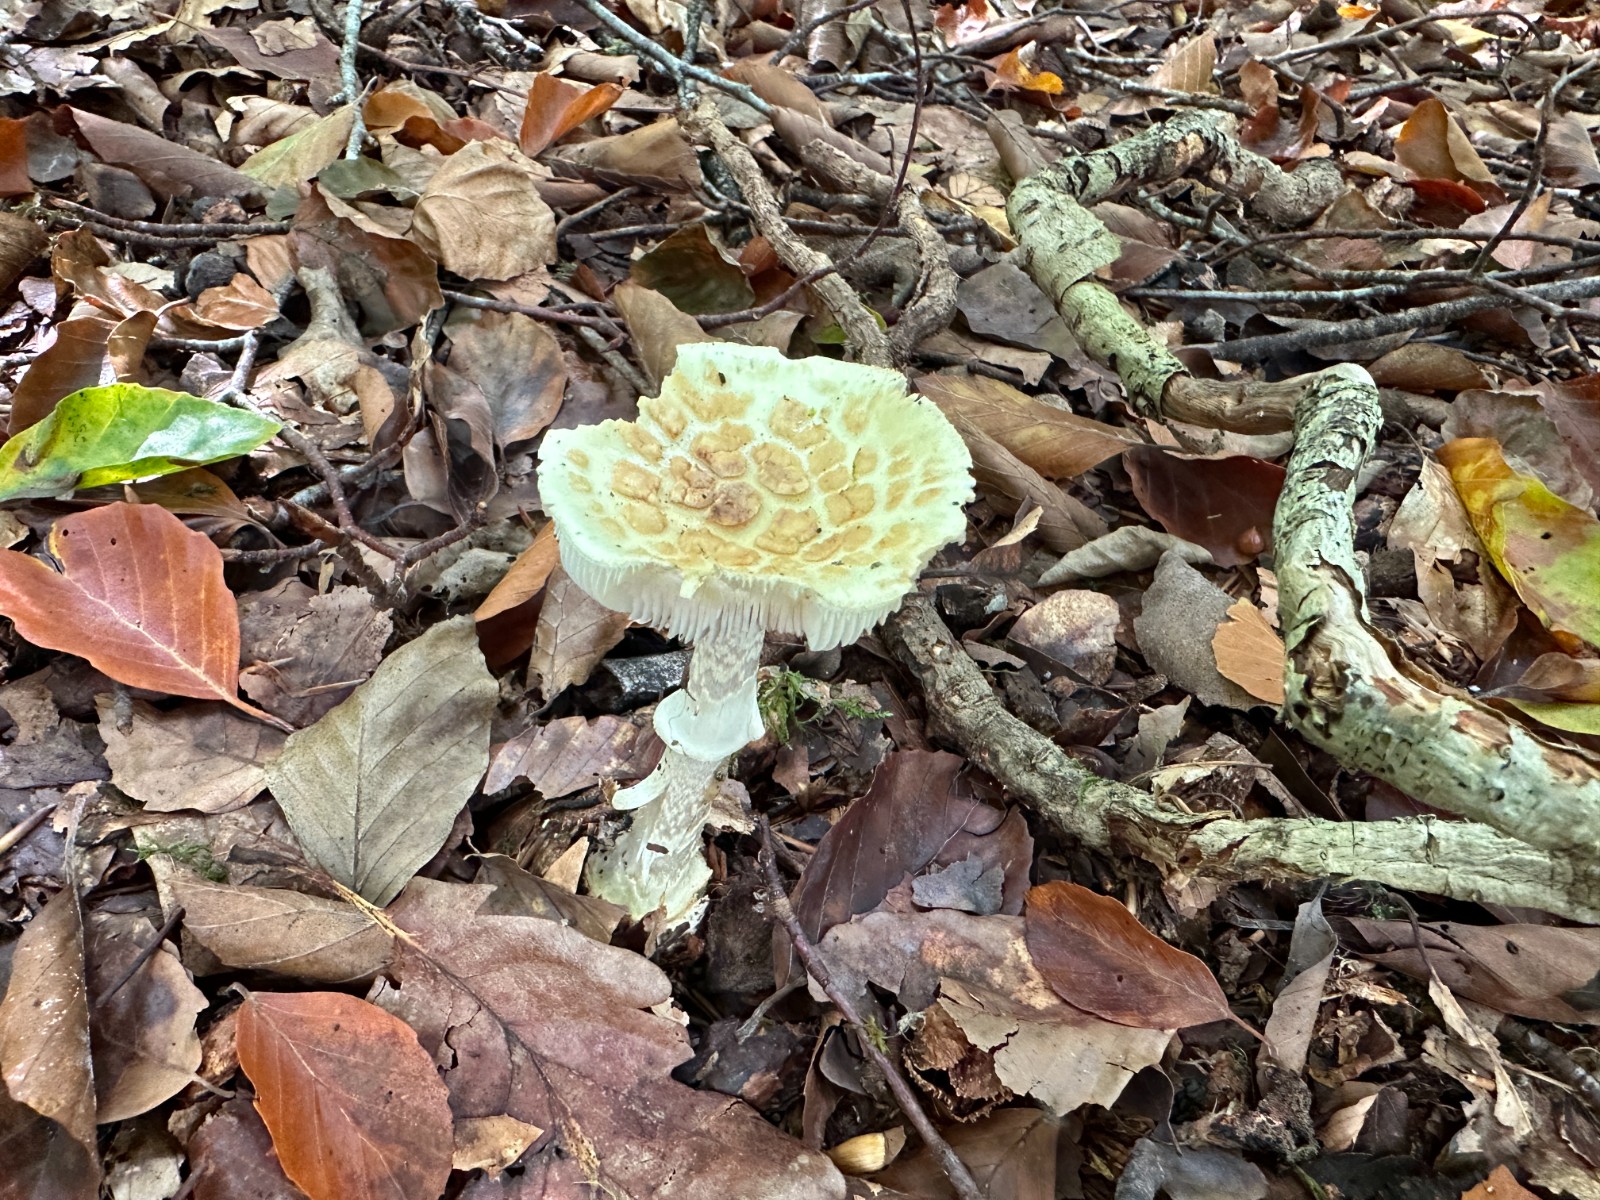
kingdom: Fungi
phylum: Basidiomycota
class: Agaricomycetes
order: Agaricales
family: Amanitaceae
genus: Amanita
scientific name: Amanita citrina
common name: kugleknoldet fluesvamp
